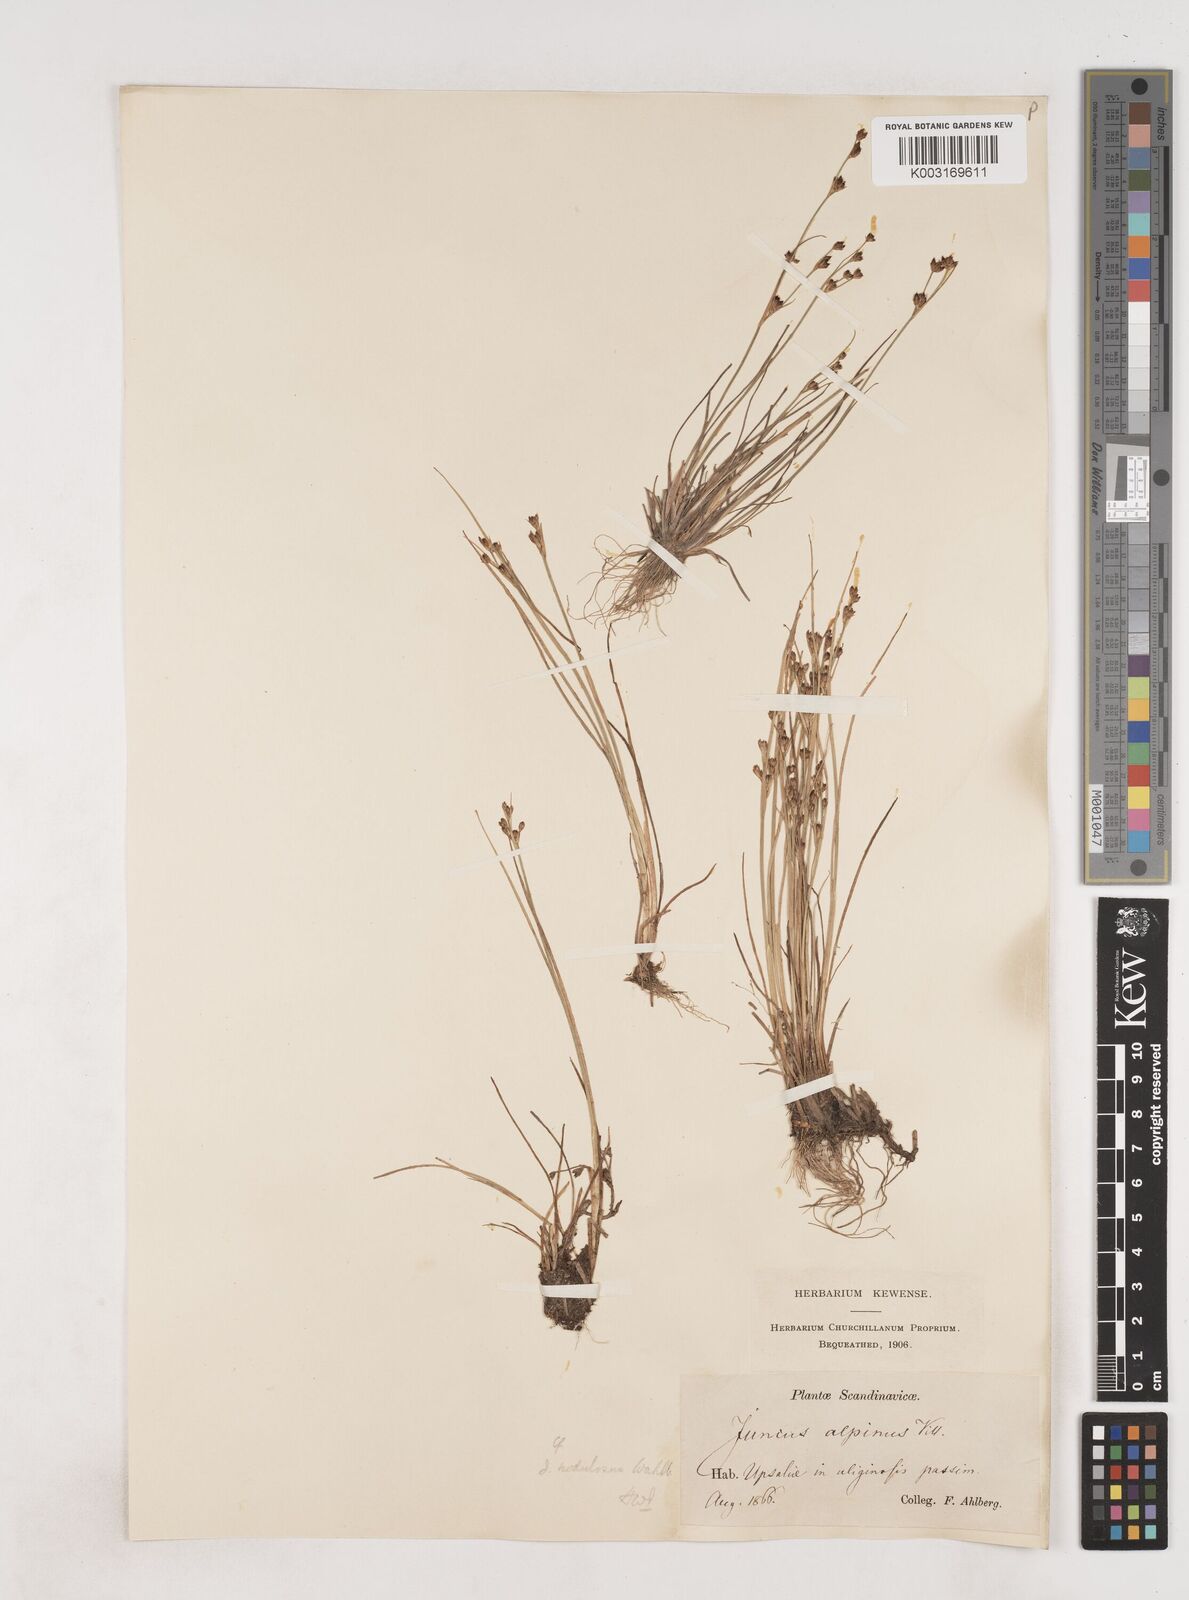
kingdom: Plantae
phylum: Tracheophyta
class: Liliopsida
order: Poales
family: Juncaceae
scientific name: Juncaceae
